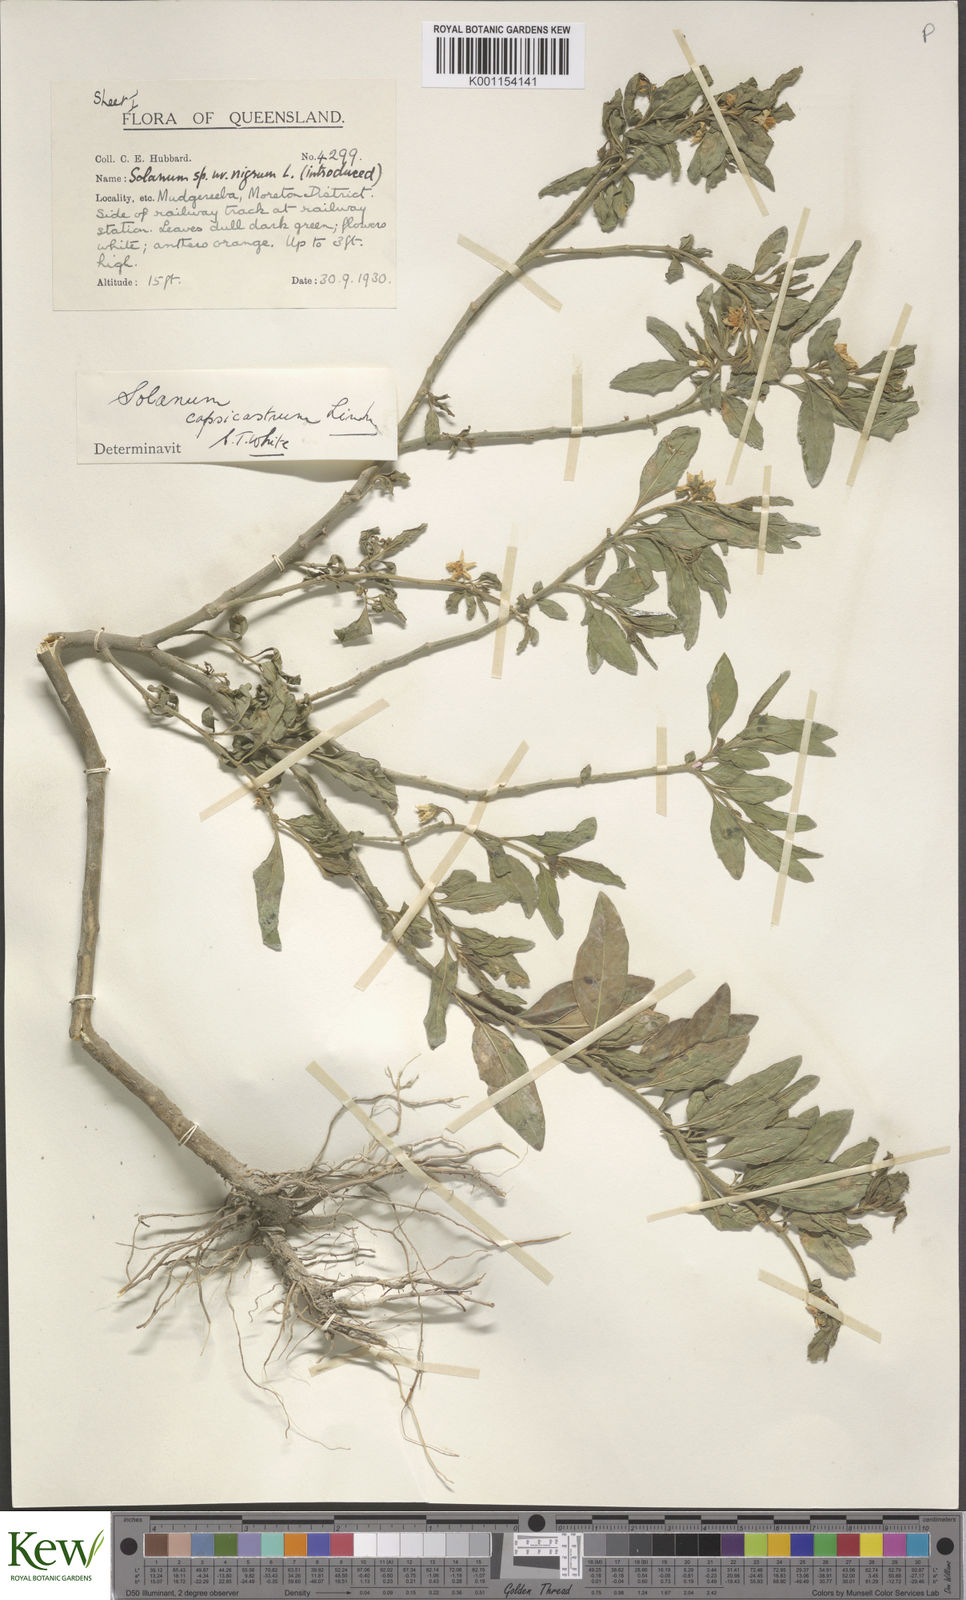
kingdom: Plantae
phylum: Tracheophyta
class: Magnoliopsida
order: Solanales
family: Solanaceae
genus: Solanum
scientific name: Solanum pseudocapsicum
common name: Jerusalem cherry
